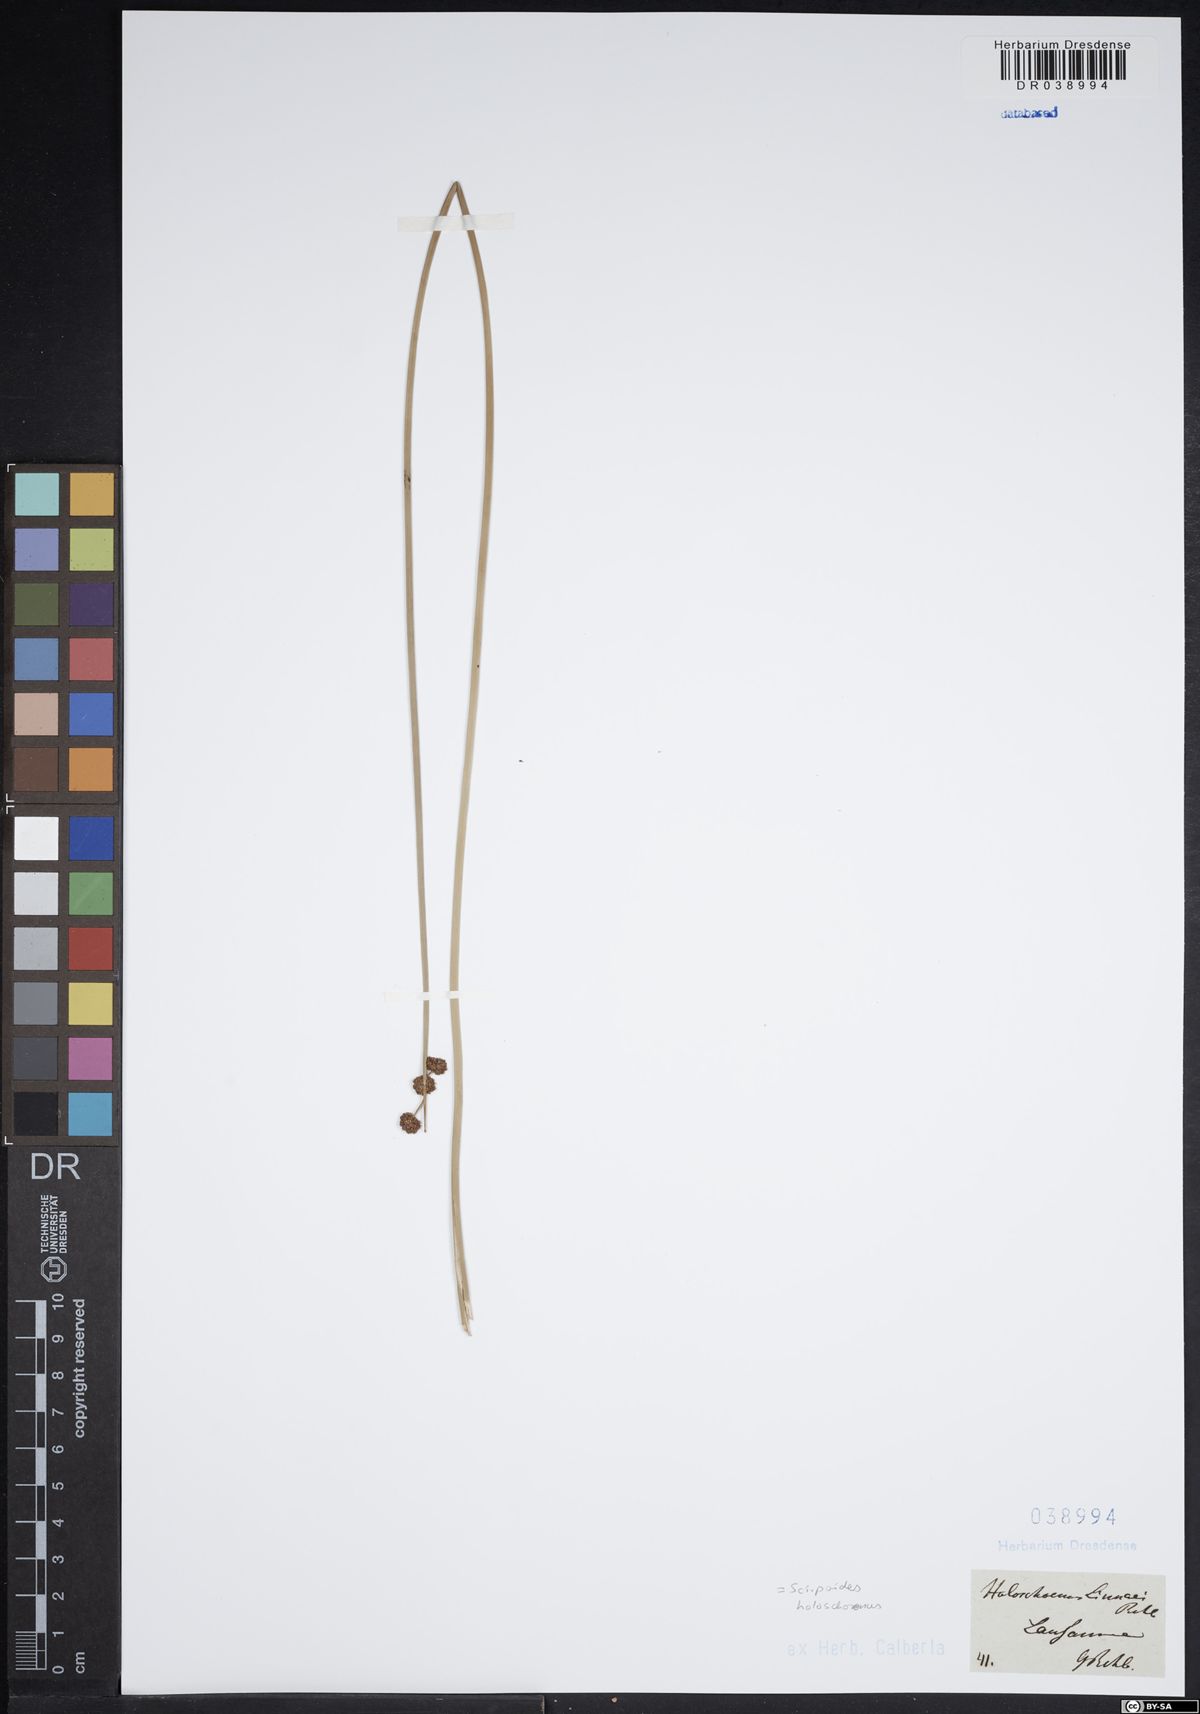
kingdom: Plantae
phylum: Tracheophyta
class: Liliopsida
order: Poales
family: Cyperaceae
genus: Scirpoides
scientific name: Scirpoides holoschoenus
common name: Round-headed club-rush
